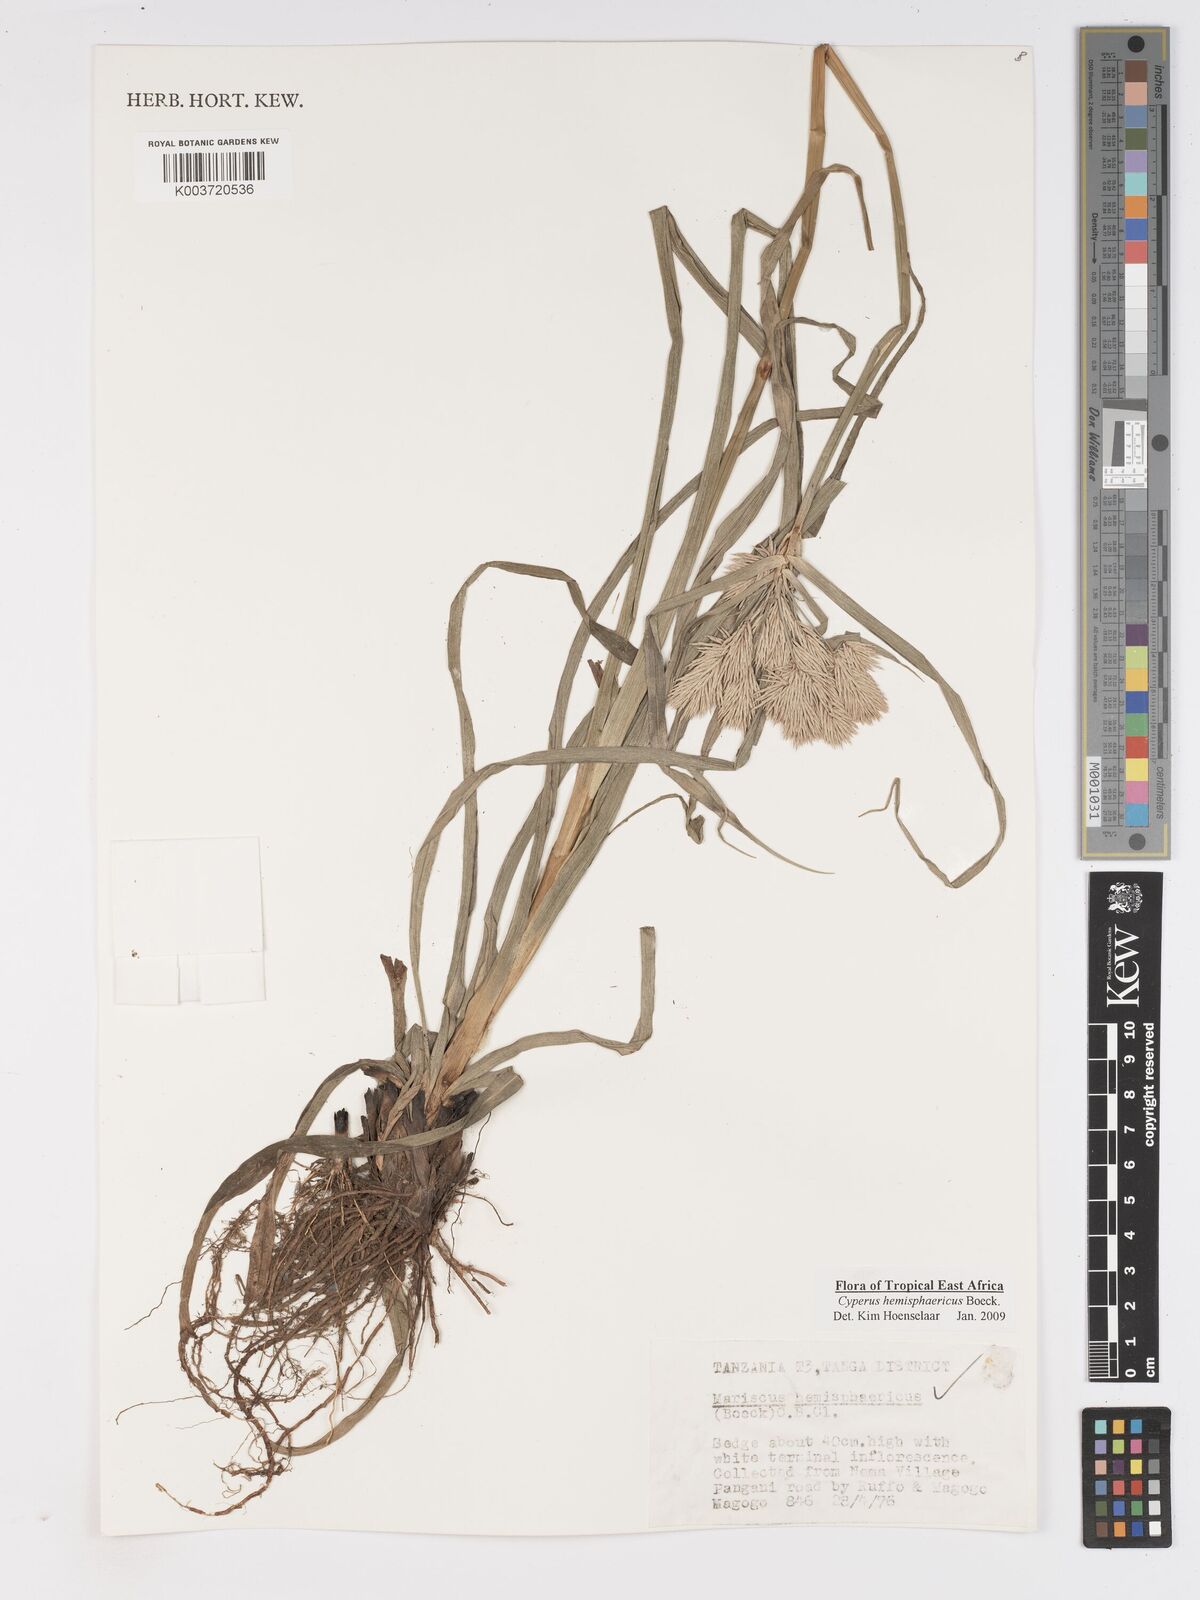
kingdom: Plantae
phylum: Tracheophyta
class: Liliopsida
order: Poales
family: Cyperaceae
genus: Cyperus
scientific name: Cyperus hemisphaericus
